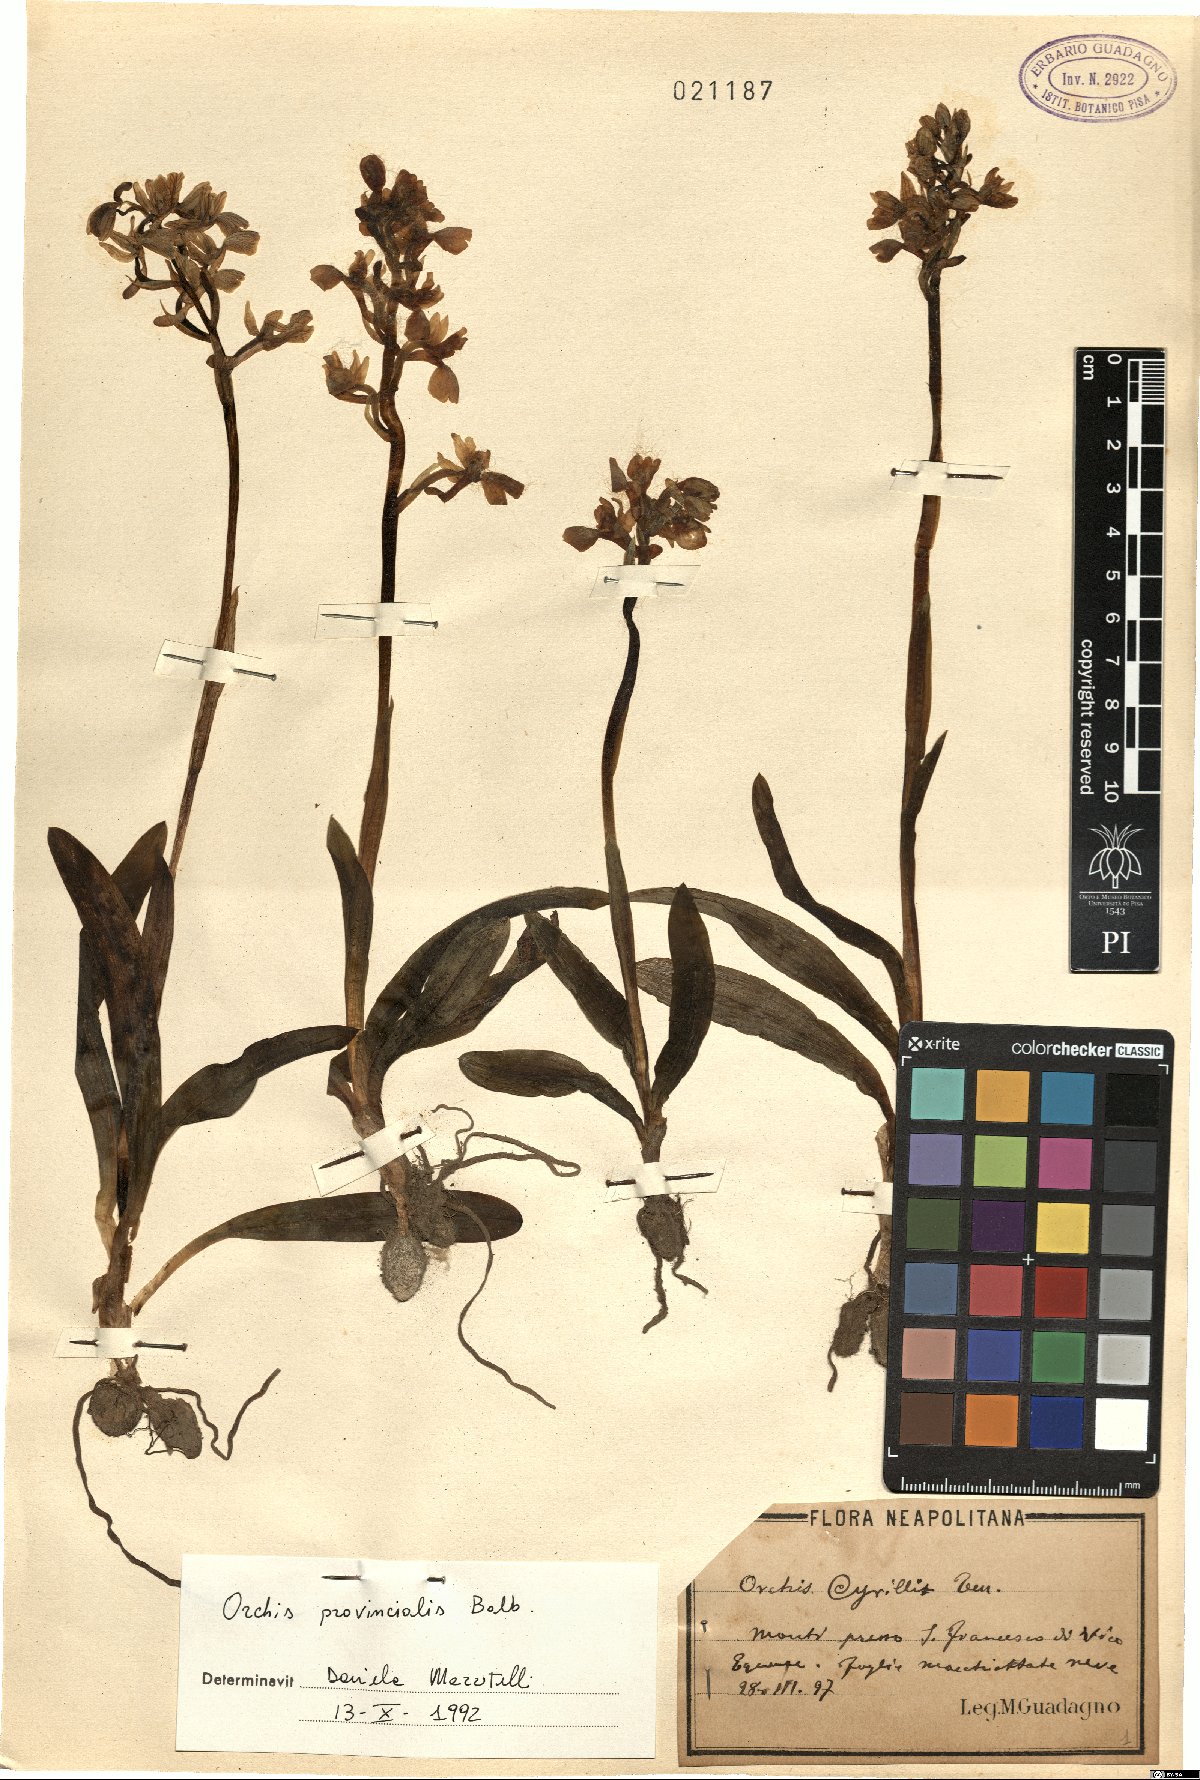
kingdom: Plantae
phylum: Tracheophyta
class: Liliopsida
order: Asparagales
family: Orchidaceae
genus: Orchis
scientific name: Orchis provincialis
